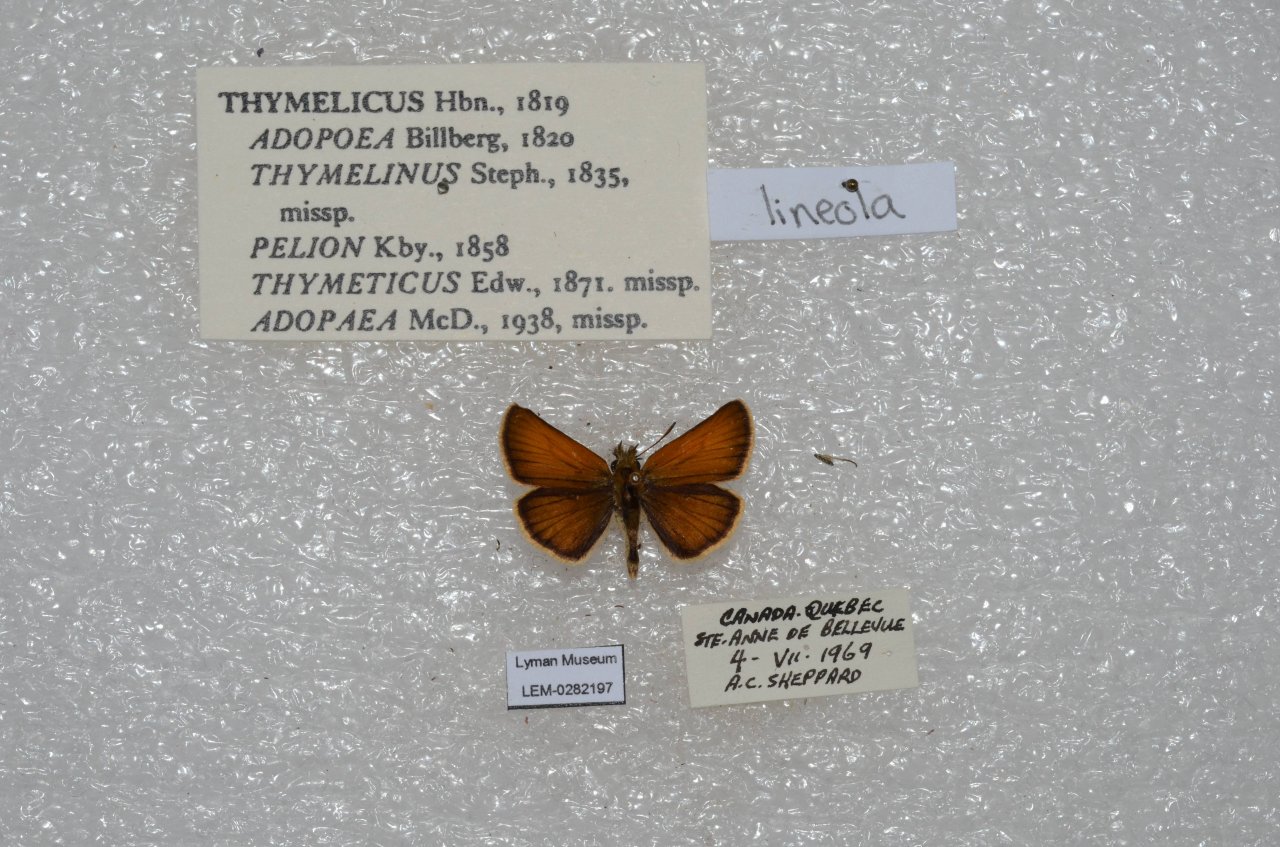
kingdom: Animalia
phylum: Arthropoda
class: Insecta
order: Lepidoptera
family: Hesperiidae
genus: Thymelicus
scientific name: Thymelicus lineola
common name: European Skipper
